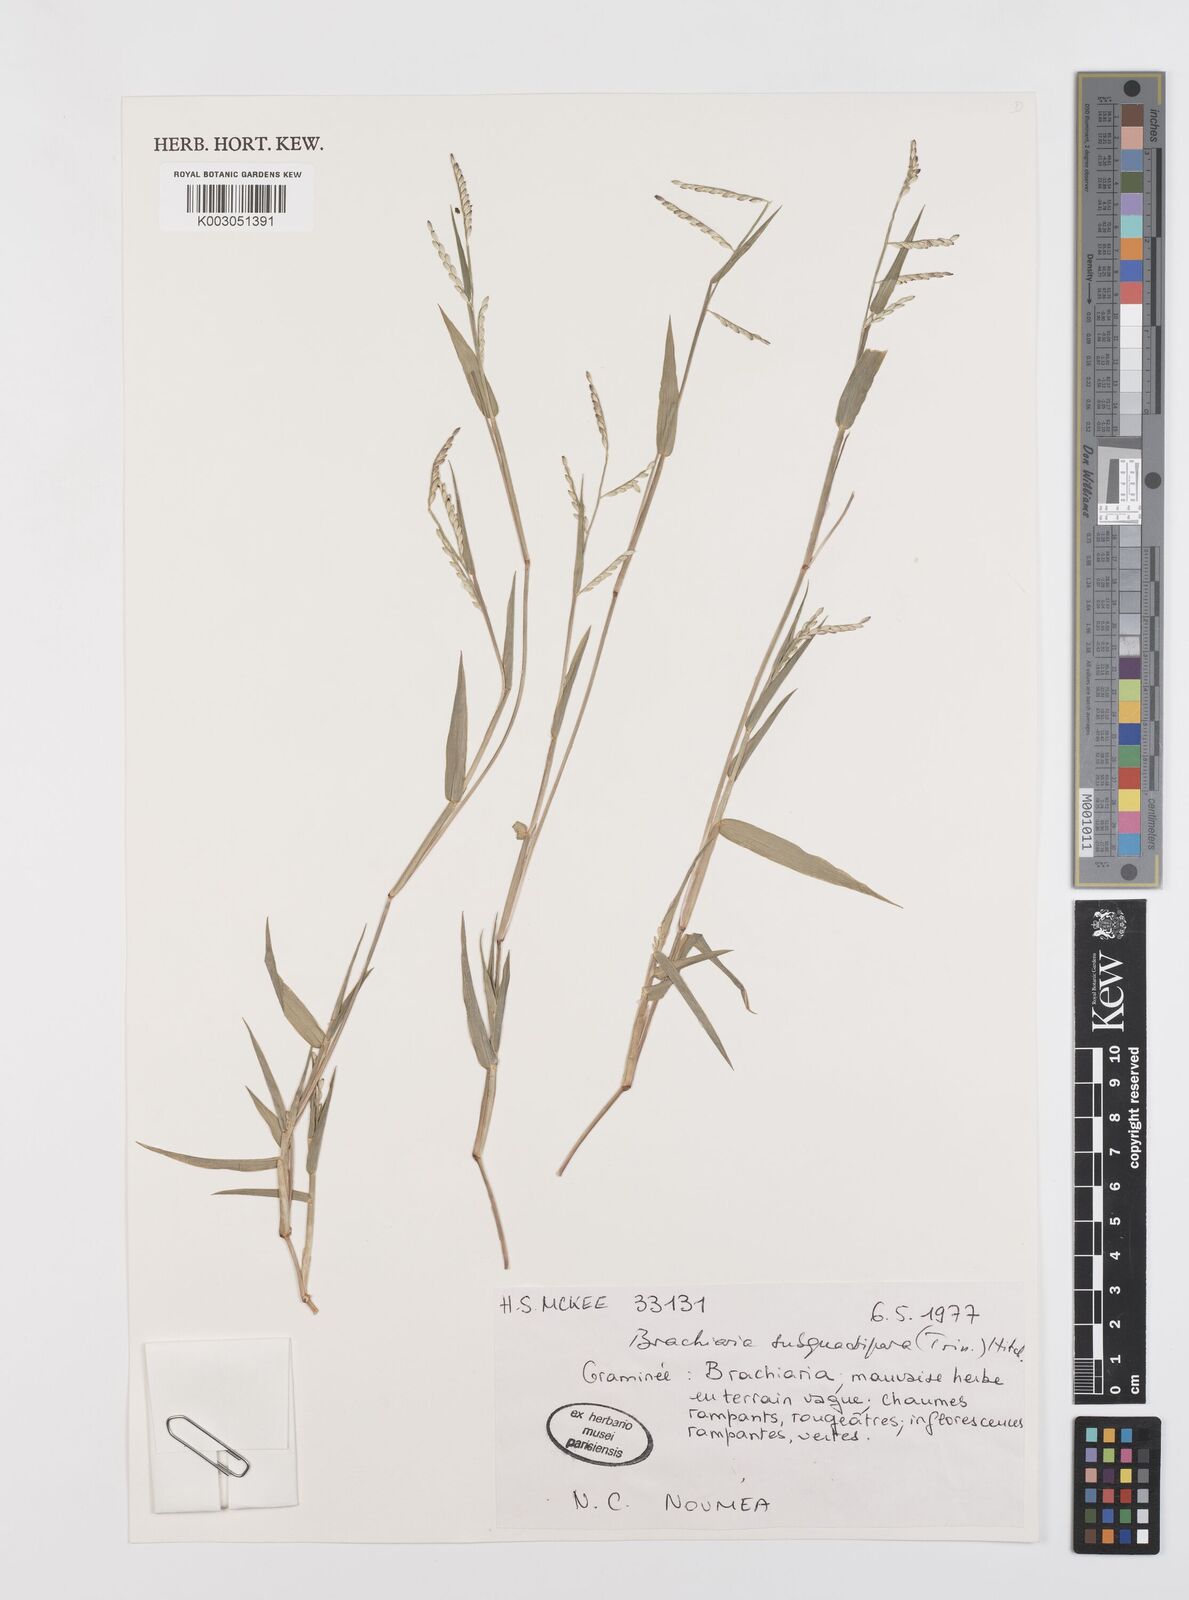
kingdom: Plantae
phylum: Tracheophyta
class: Liliopsida
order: Poales
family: Poaceae
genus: Urochloa
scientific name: Urochloa subquadripara
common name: Armgrass millet
